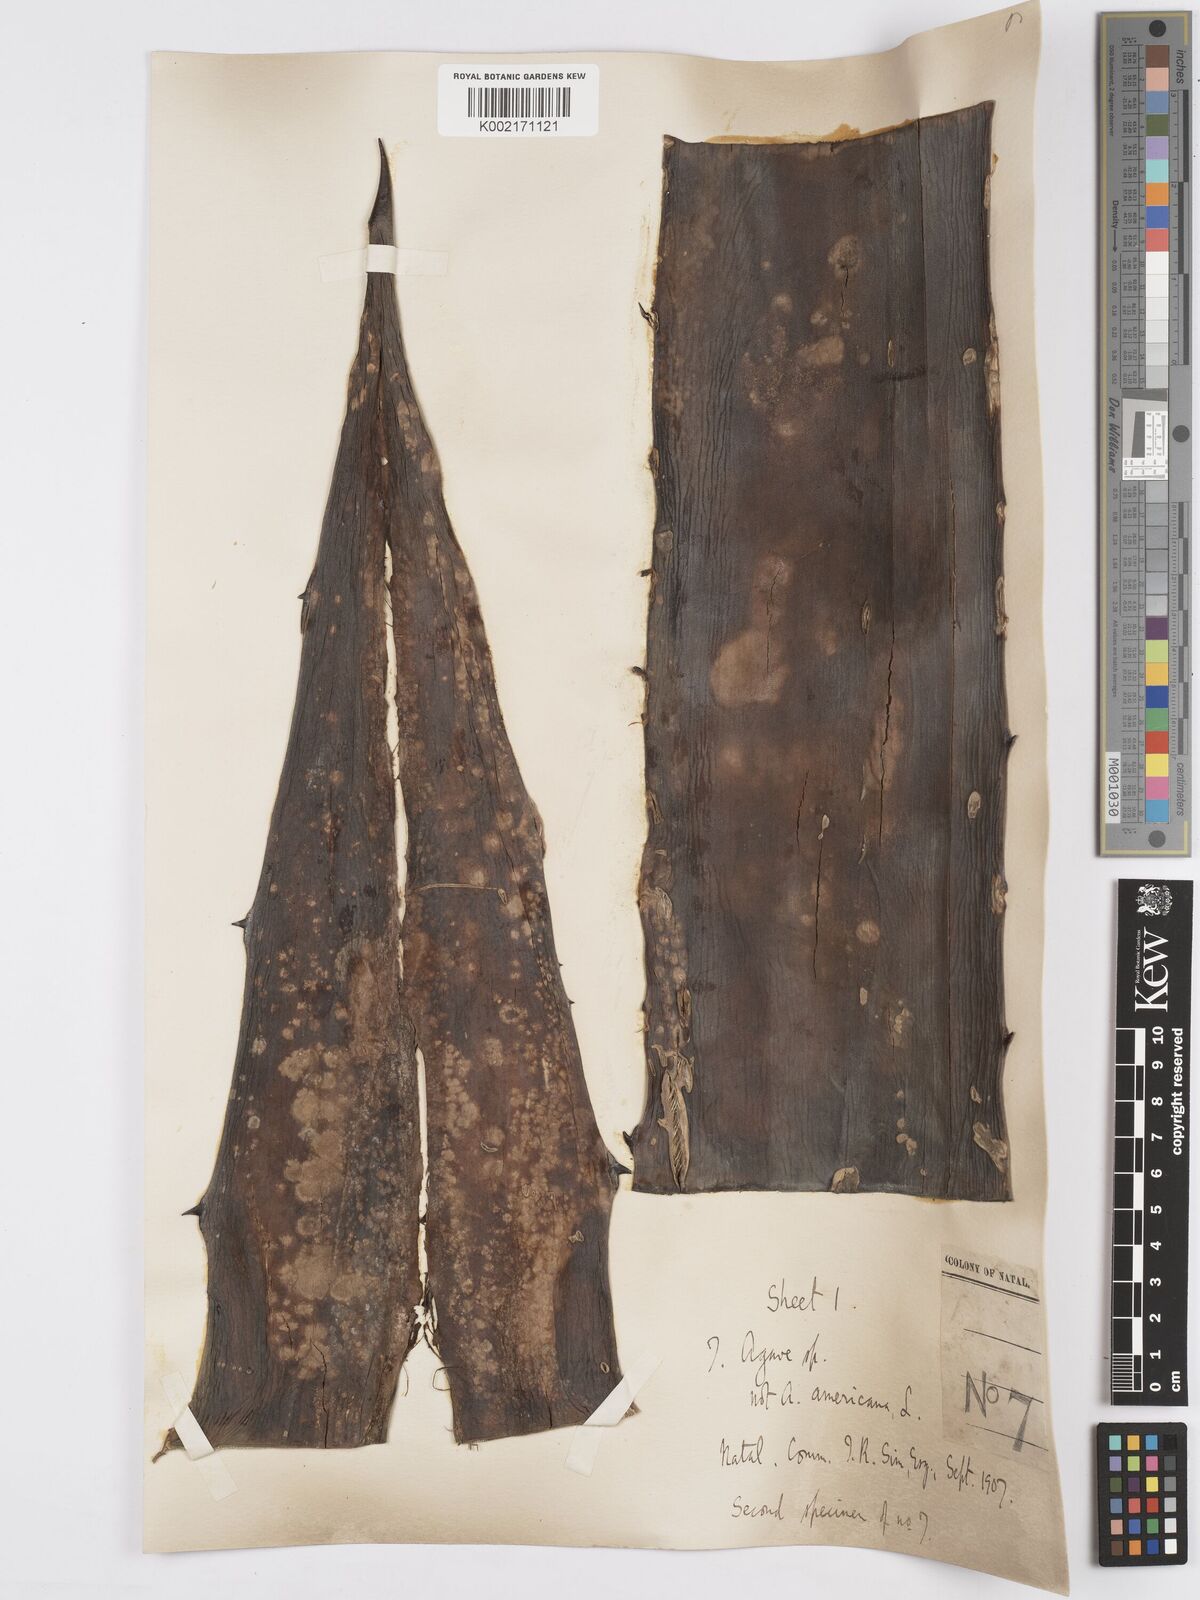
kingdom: Plantae
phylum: Tracheophyta
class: Liliopsida
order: Asparagales
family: Asparagaceae
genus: Agave
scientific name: Agave
